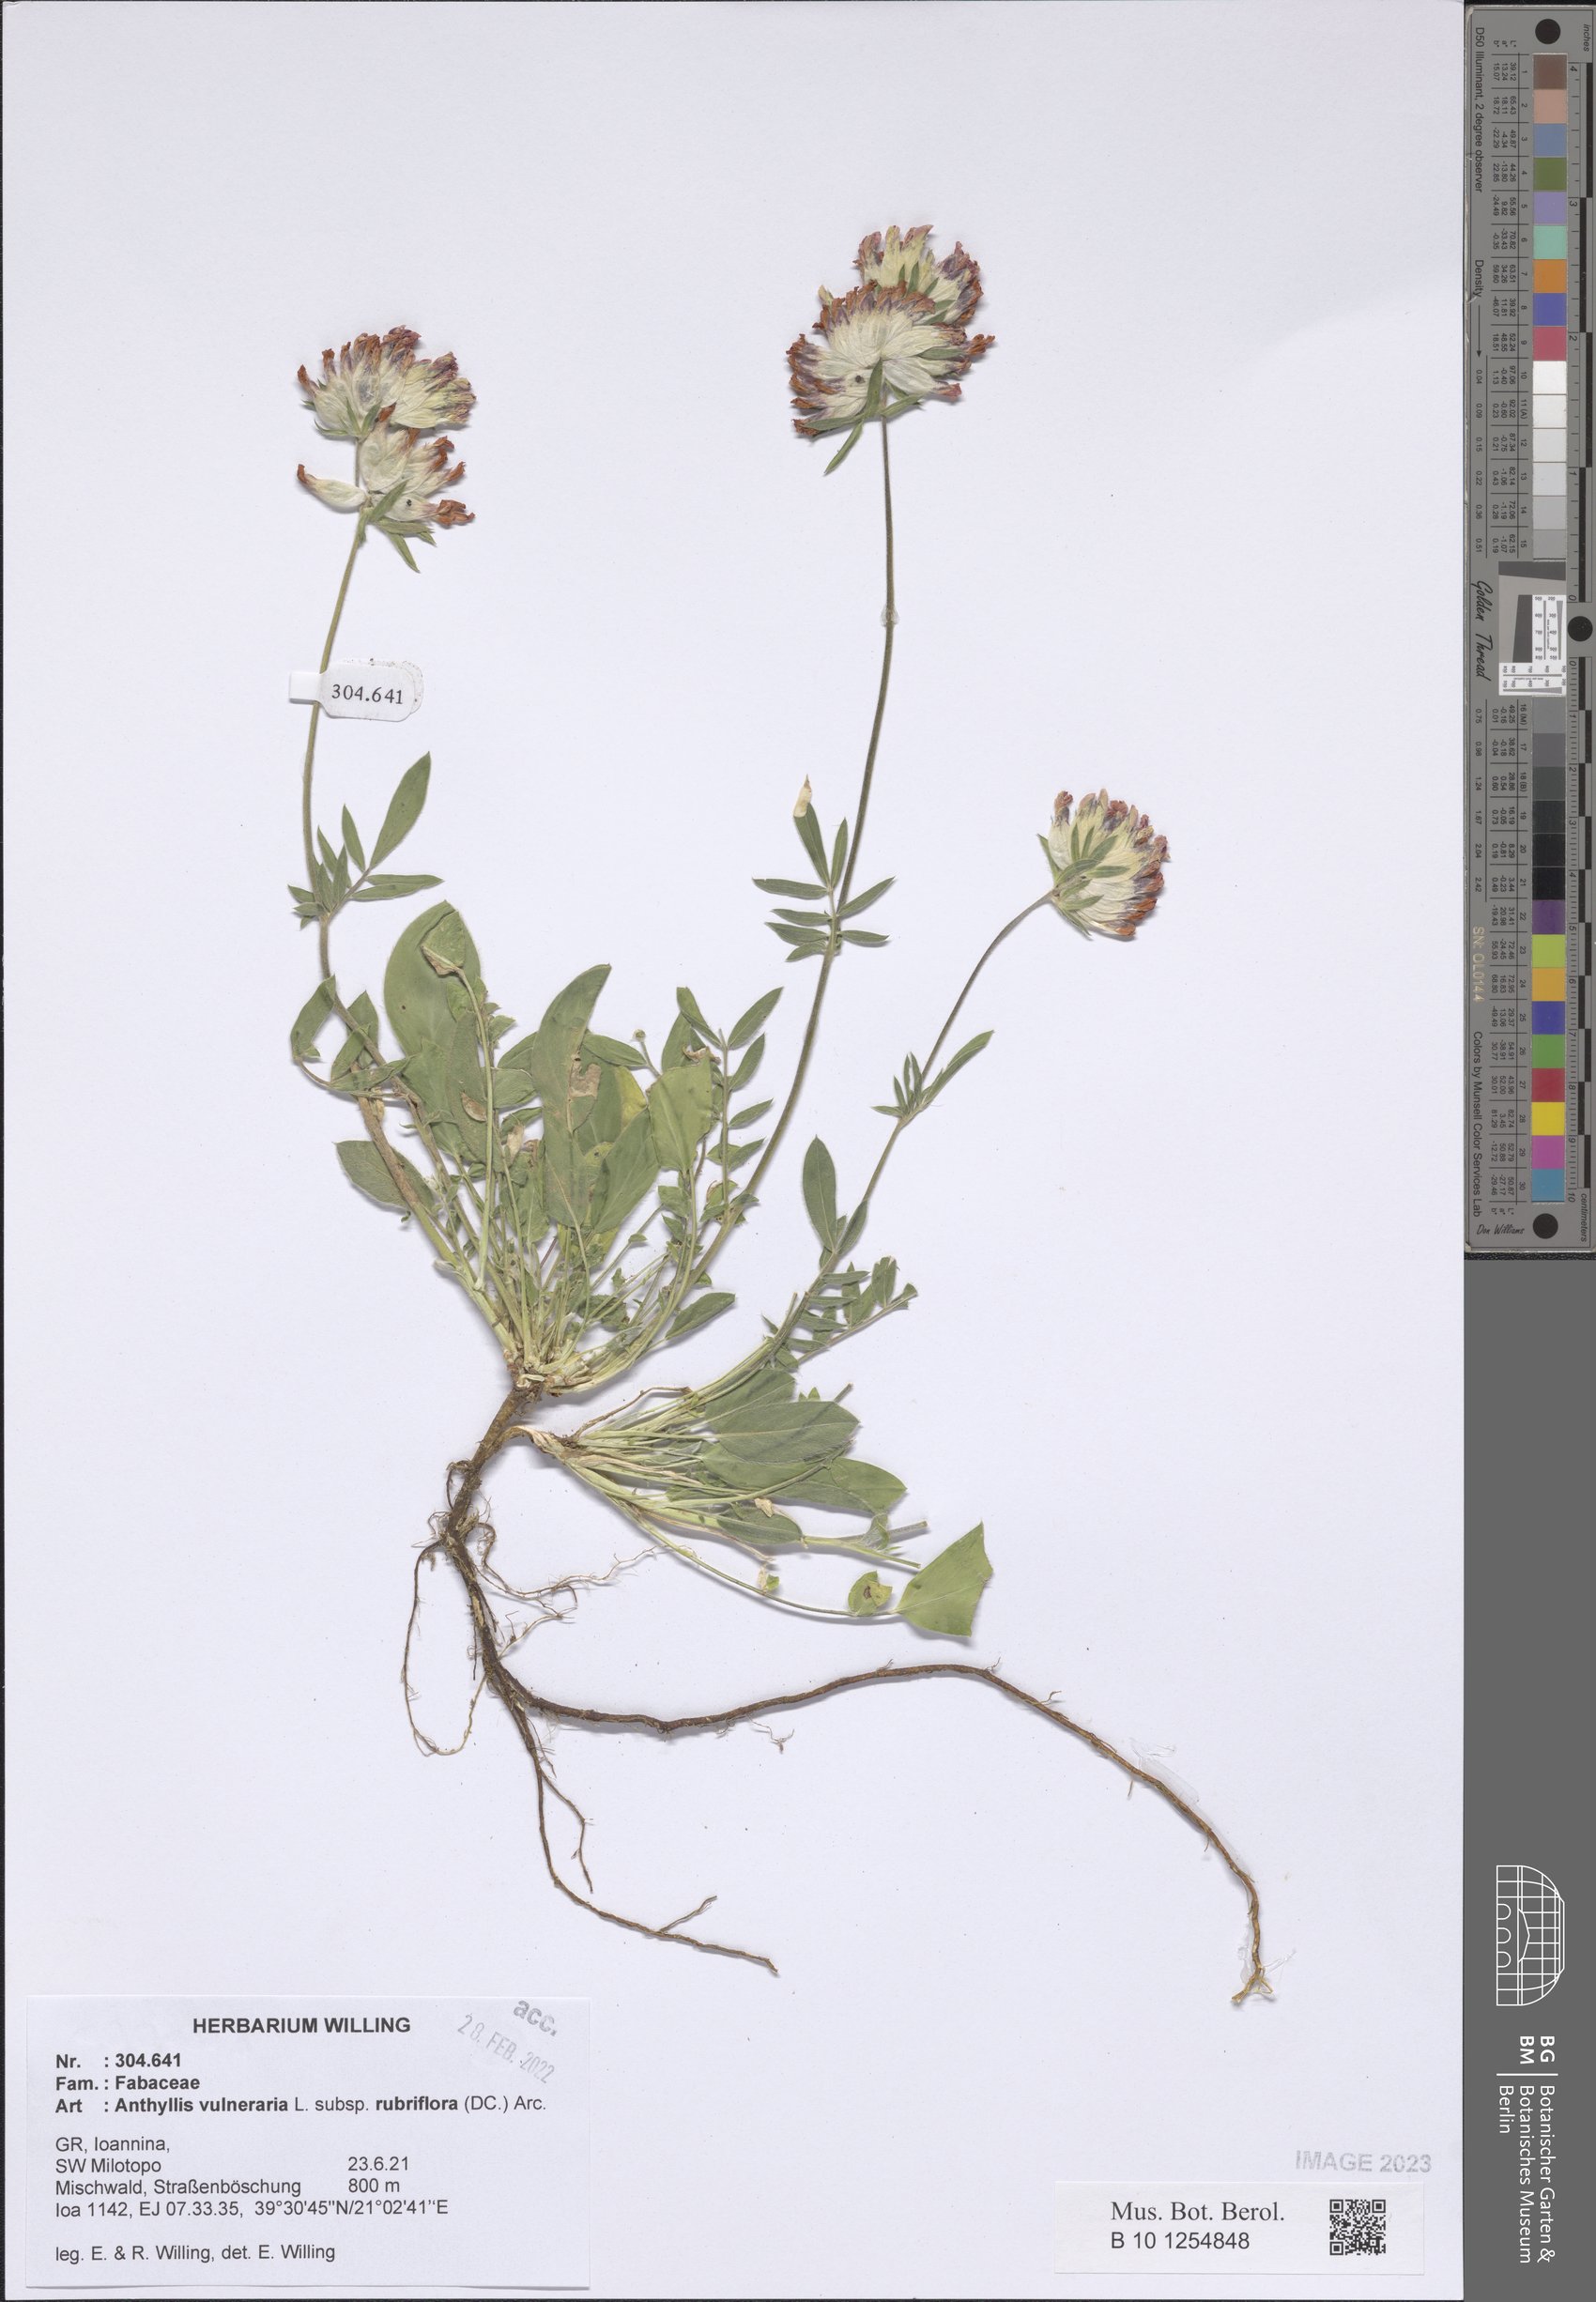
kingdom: Plantae
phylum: Tracheophyta
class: Magnoliopsida
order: Fabales
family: Fabaceae
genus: Anthyllis
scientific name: Anthyllis vulneraria
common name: Kidney vetch
